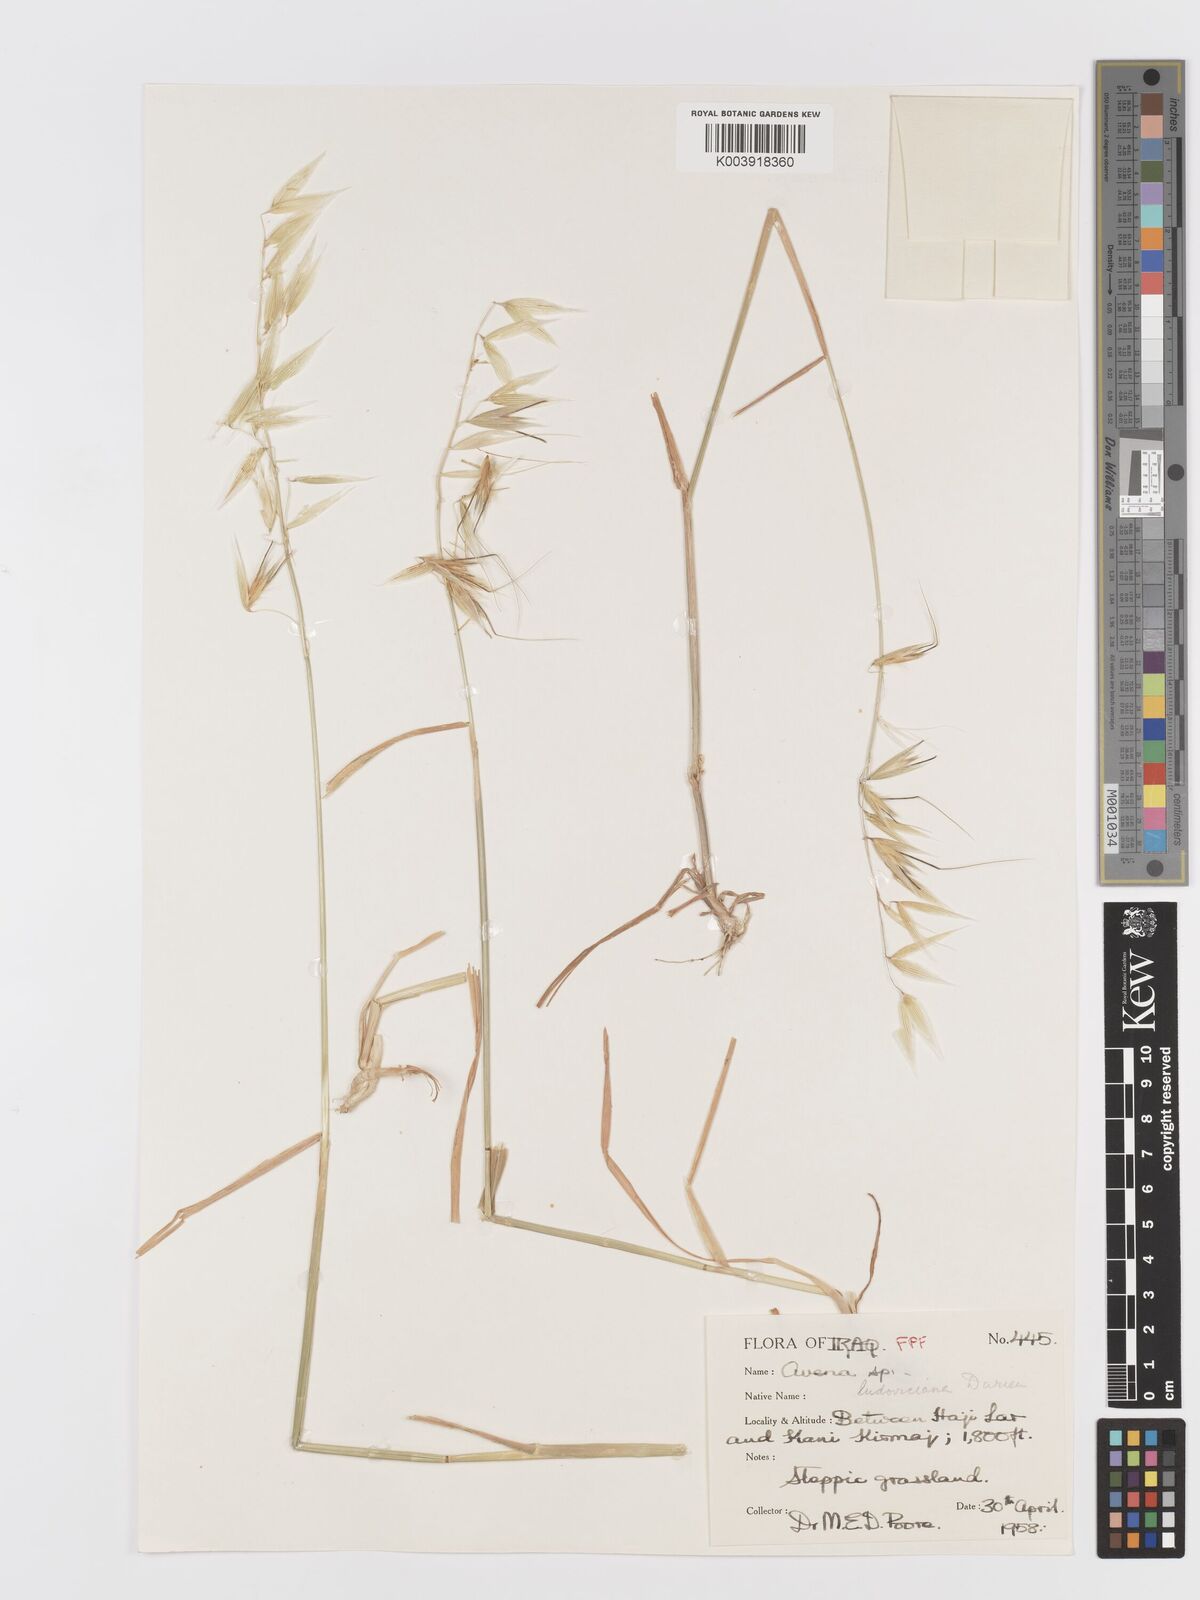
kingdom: Plantae
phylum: Tracheophyta
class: Liliopsida
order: Poales
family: Poaceae
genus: Avena
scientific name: Avena sterilis
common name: Animated oat
